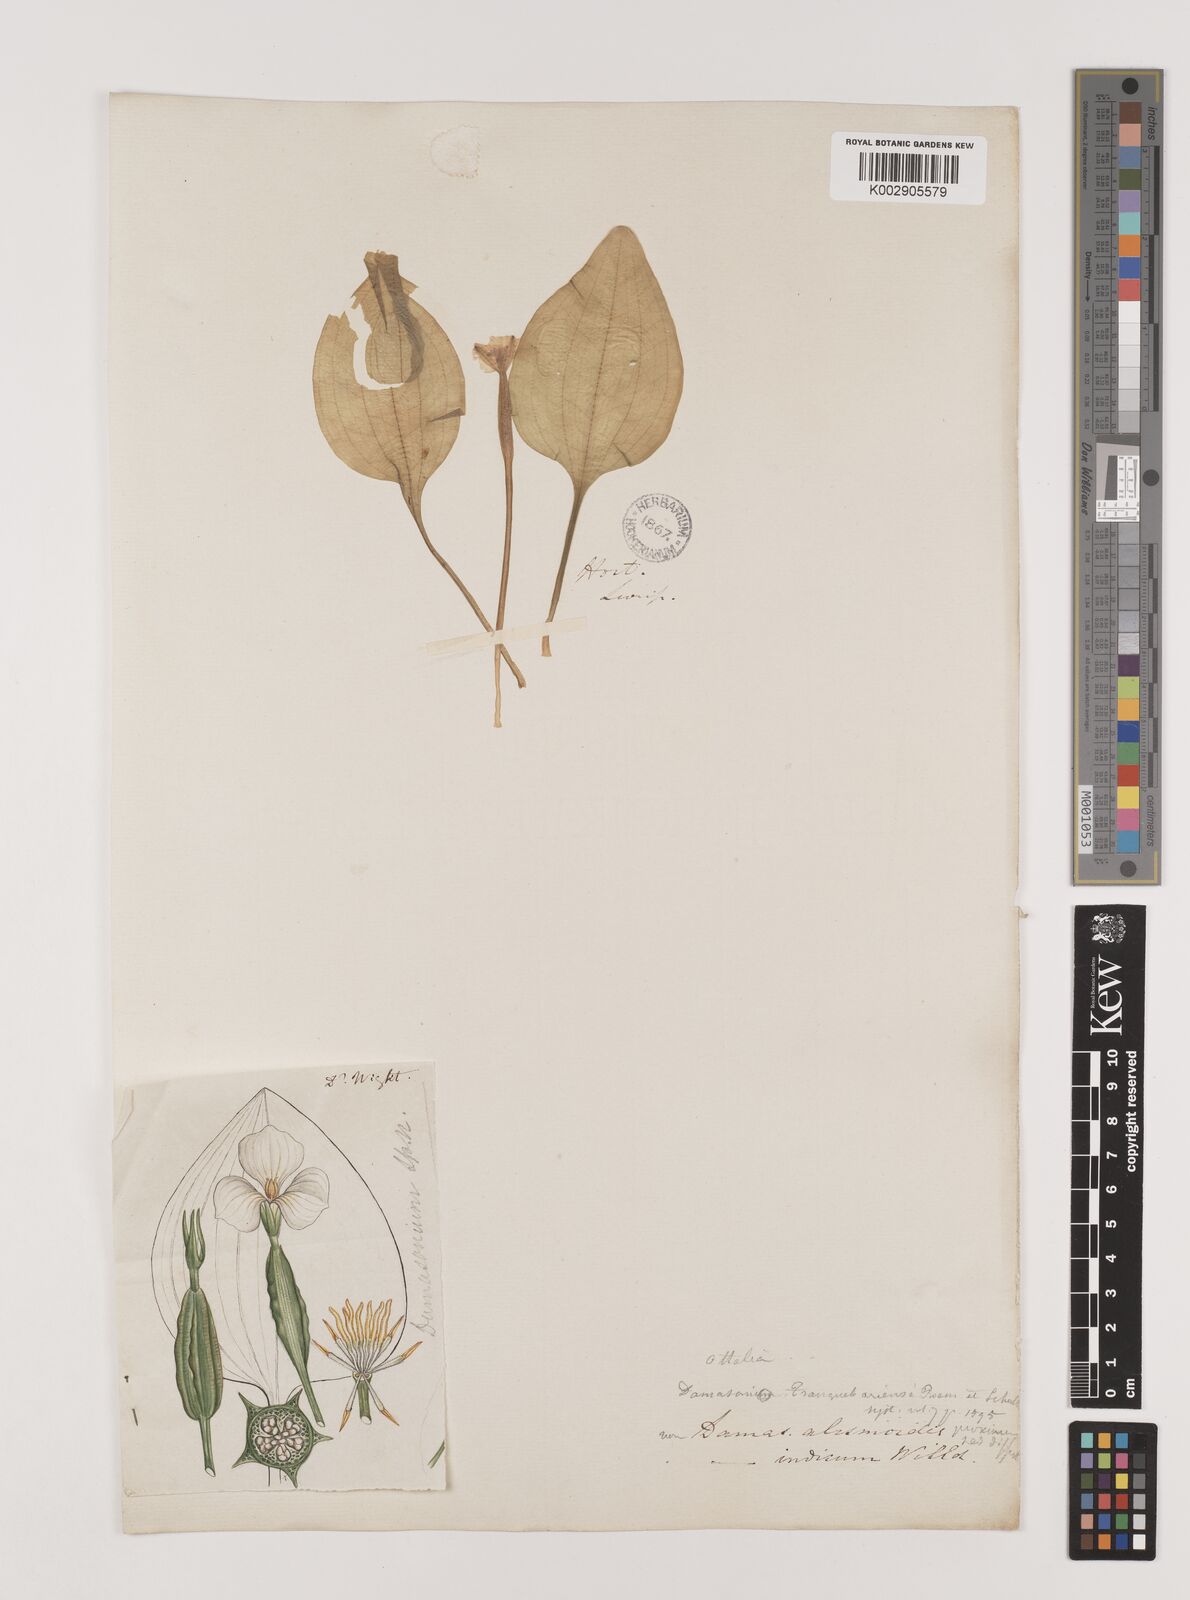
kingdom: Plantae
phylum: Tracheophyta
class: Liliopsida
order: Alismatales
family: Hydrocharitaceae
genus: Ottelia
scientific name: Ottelia alismoides
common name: Duck-lettuce
